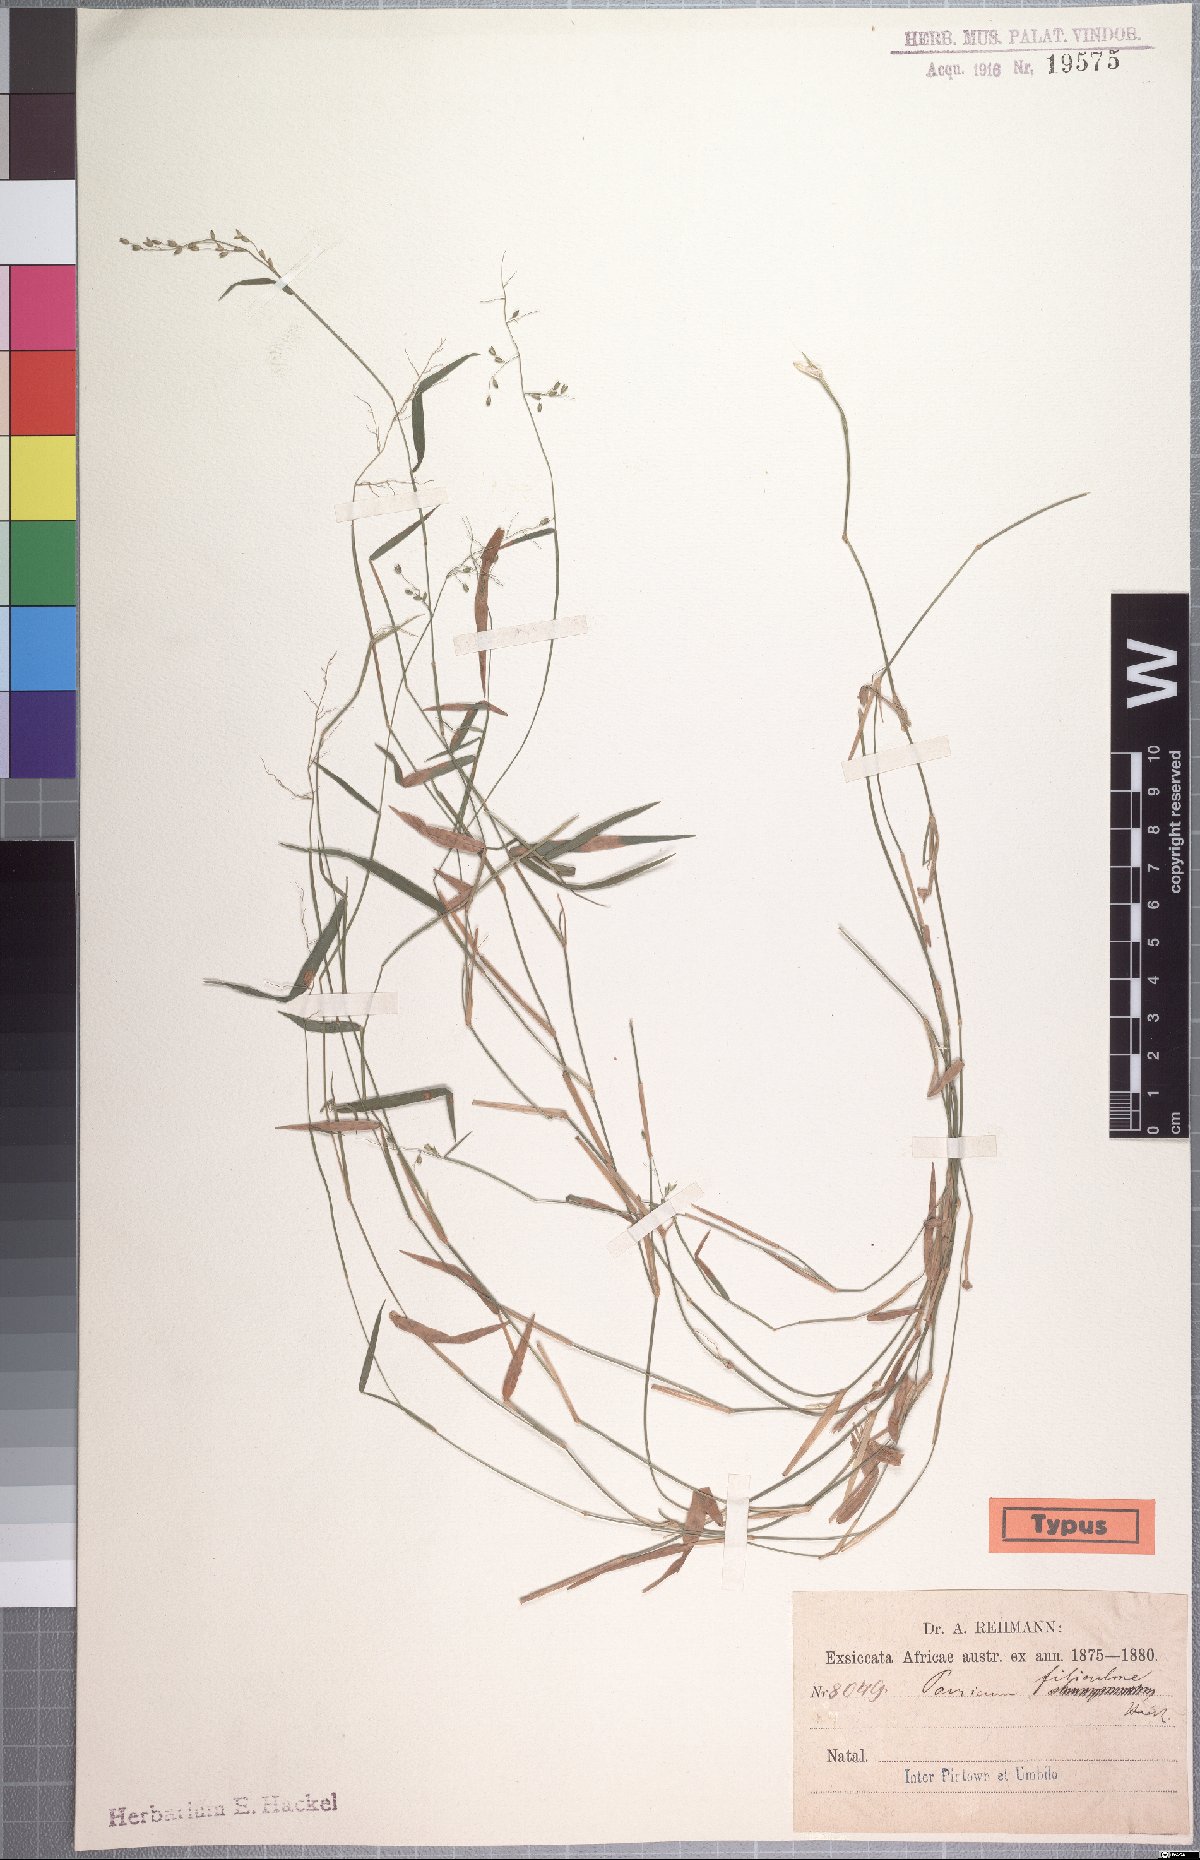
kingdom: Plantae
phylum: Tracheophyta
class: Liliopsida
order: Poales
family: Poaceae
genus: Adenochloa
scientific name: Adenochloa hymeniochila
